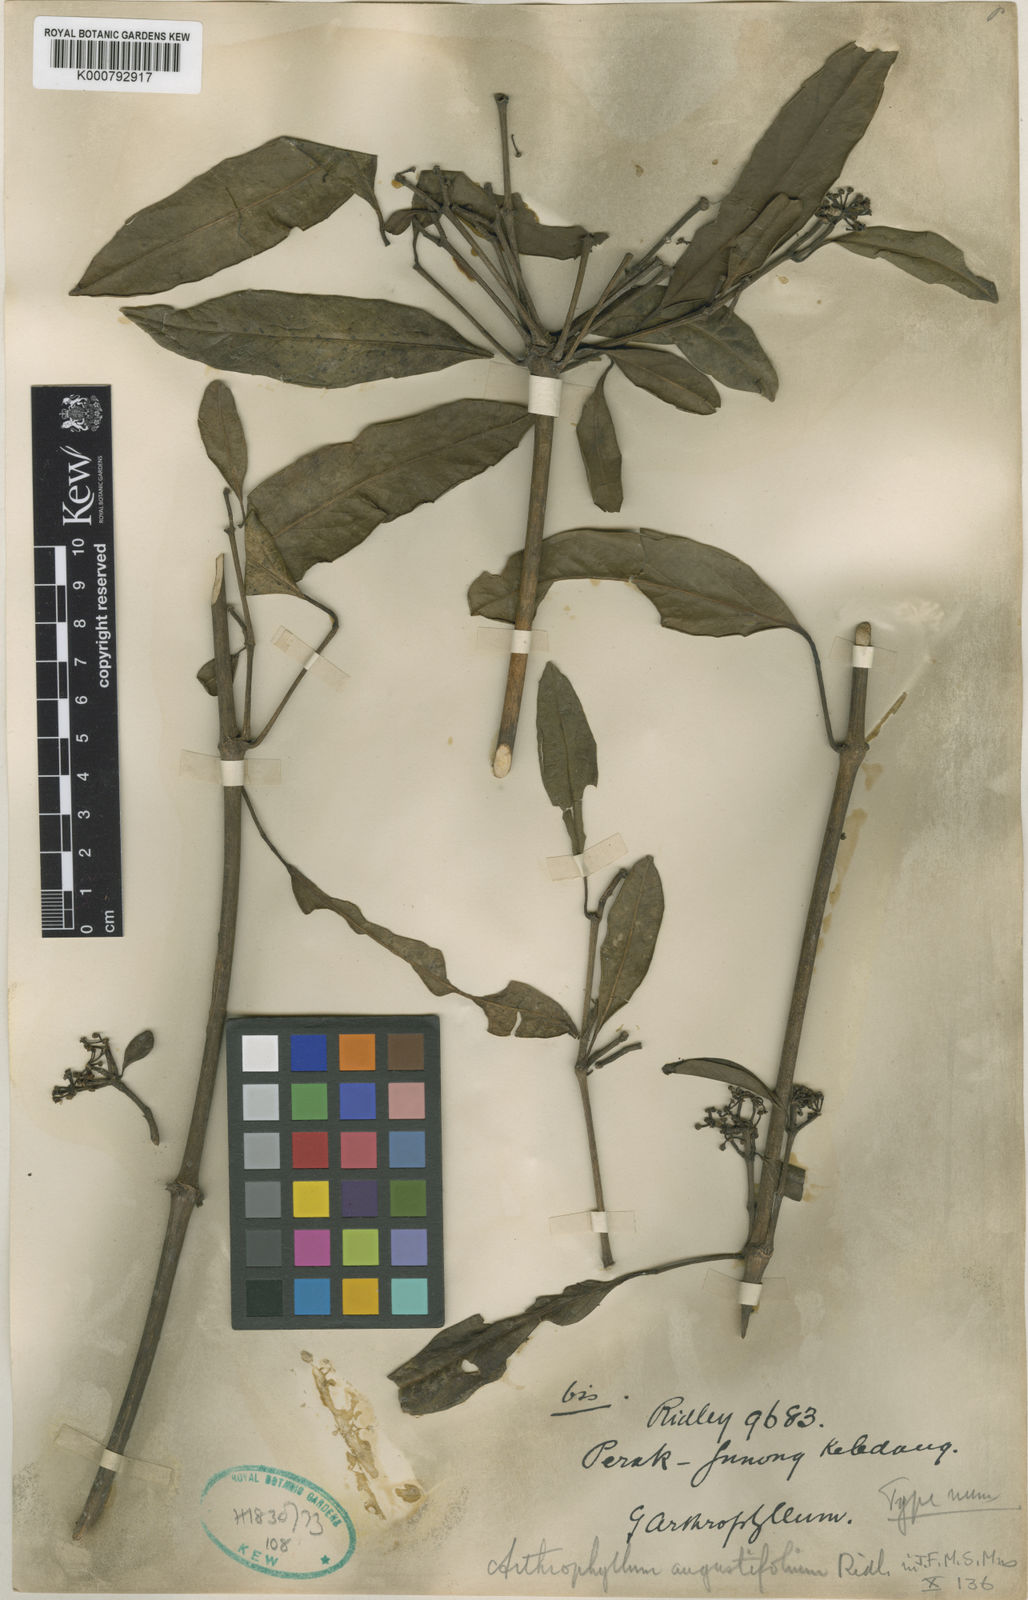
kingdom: Plantae
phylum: Tracheophyta
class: Magnoliopsida
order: Apiales
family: Araliaceae
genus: Polyscias
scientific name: Polyscias angustifolia
